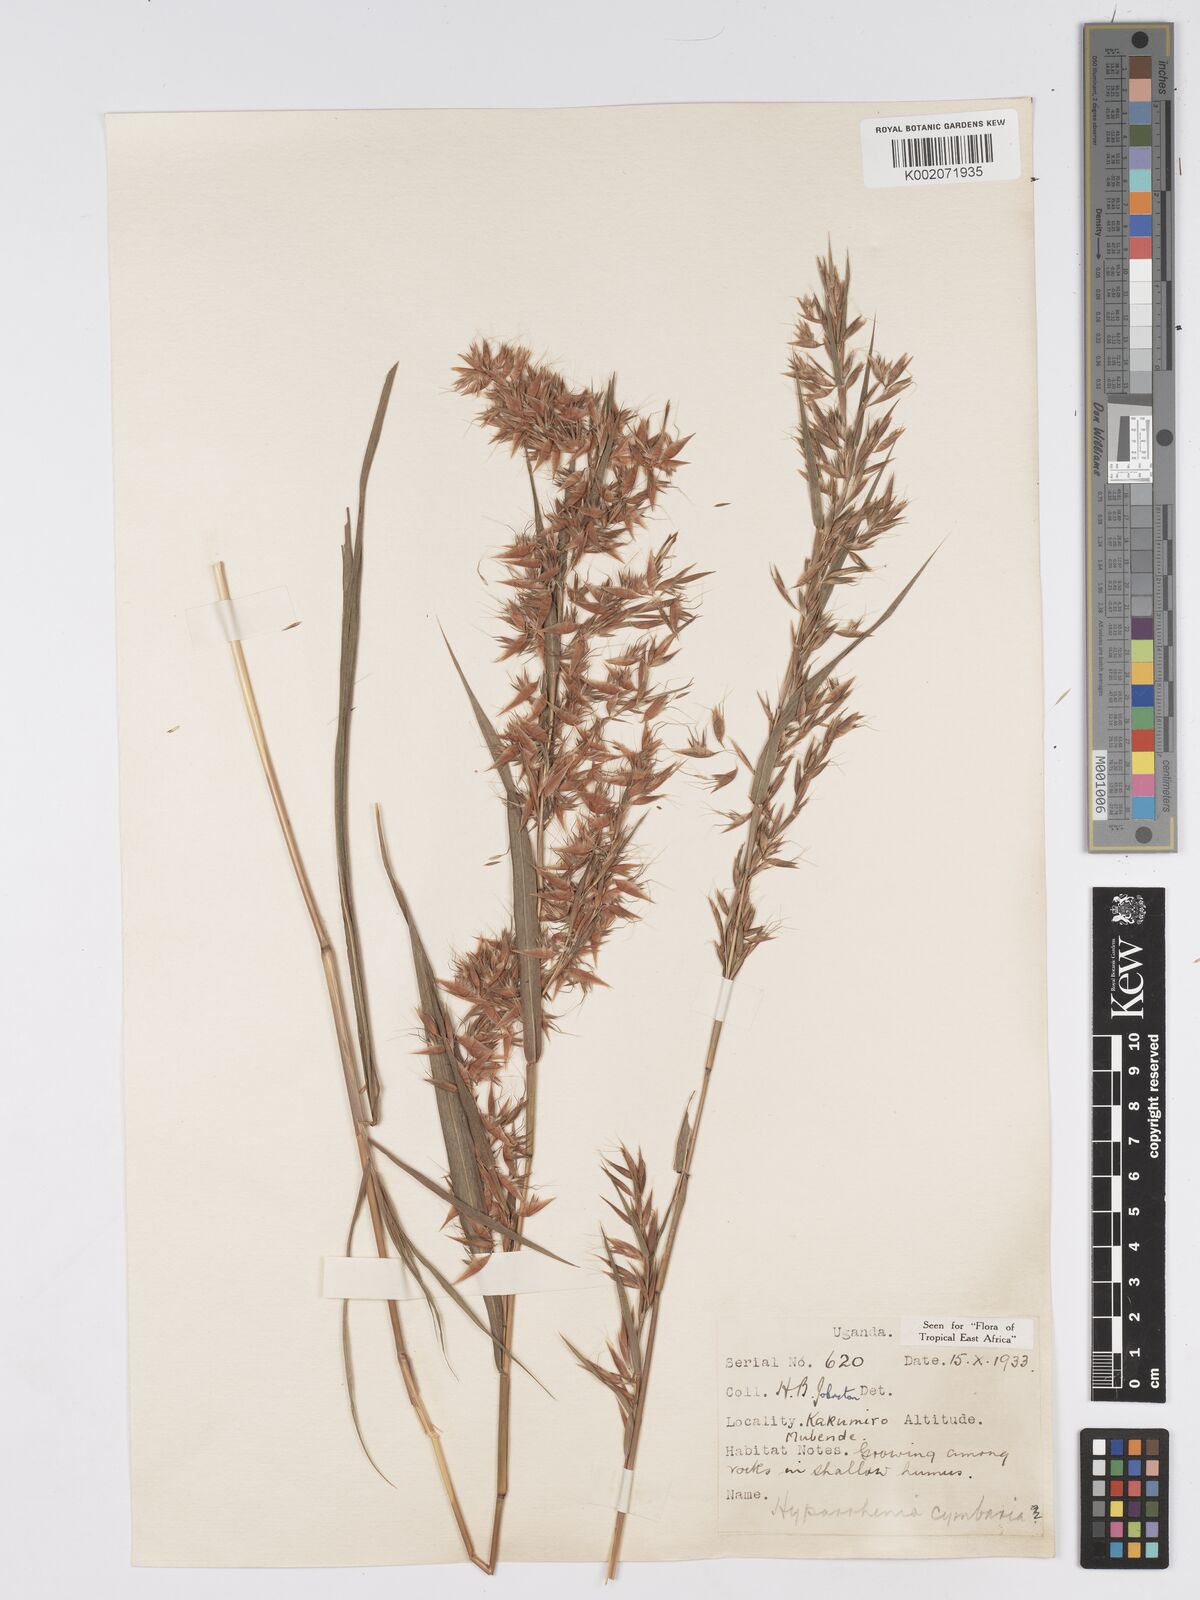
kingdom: Plantae
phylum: Tracheophyta
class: Liliopsida
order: Poales
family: Poaceae
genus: Hyparrhenia
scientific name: Hyparrhenia cymbaria
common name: Boat thatching grass
